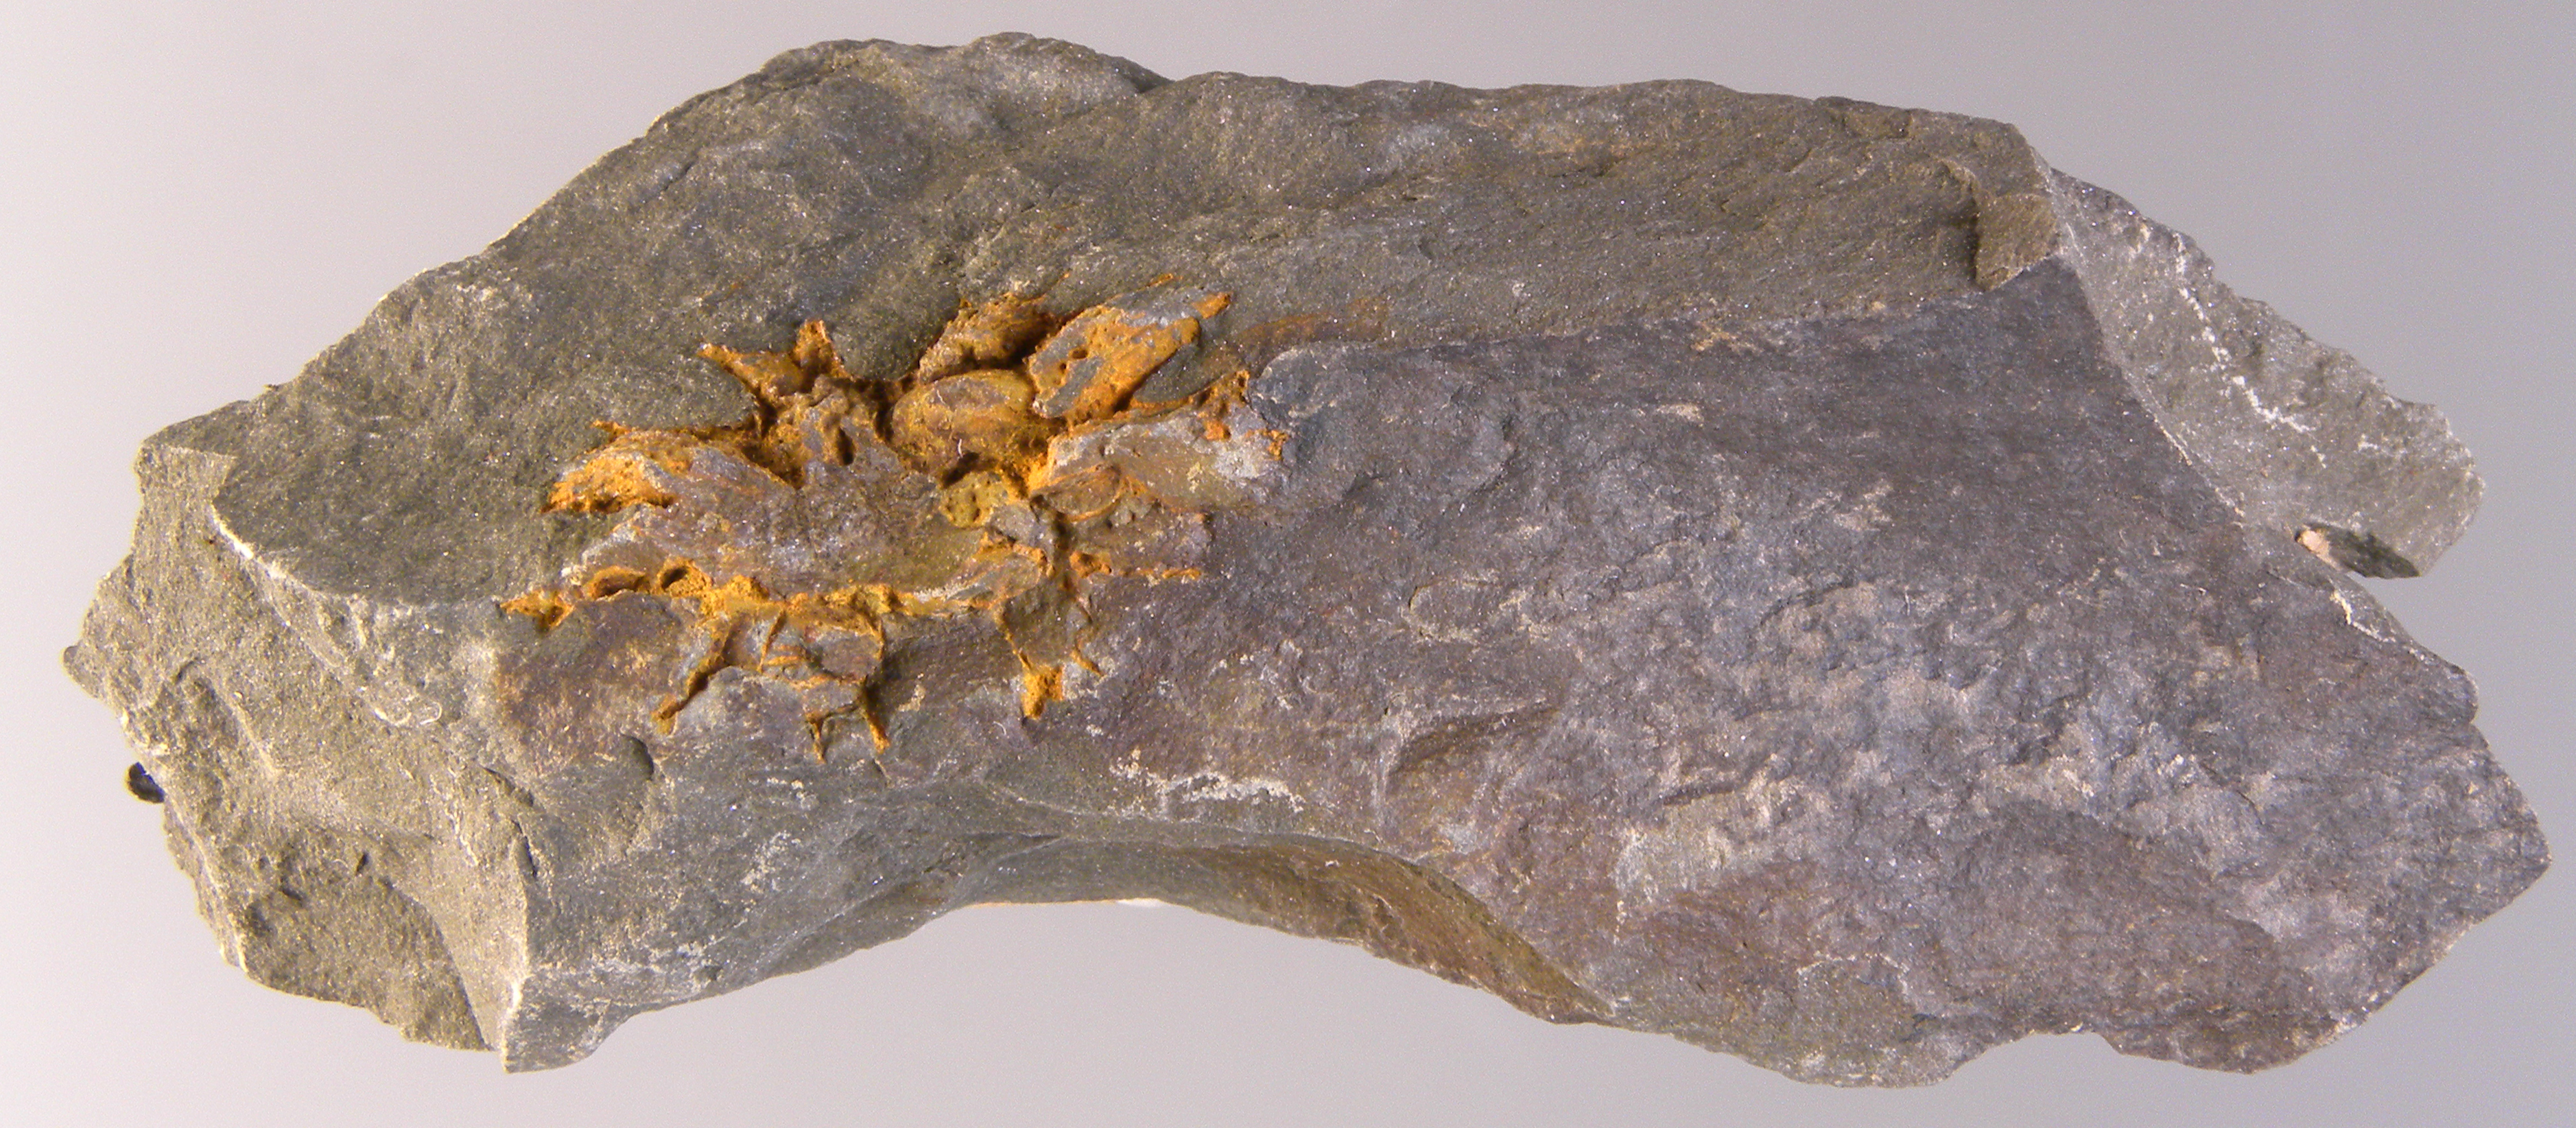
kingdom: Animalia
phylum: Cnidaria
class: Anthozoa
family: Micheliniidae
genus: Pleurodictyum
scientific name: Pleurodictyum
